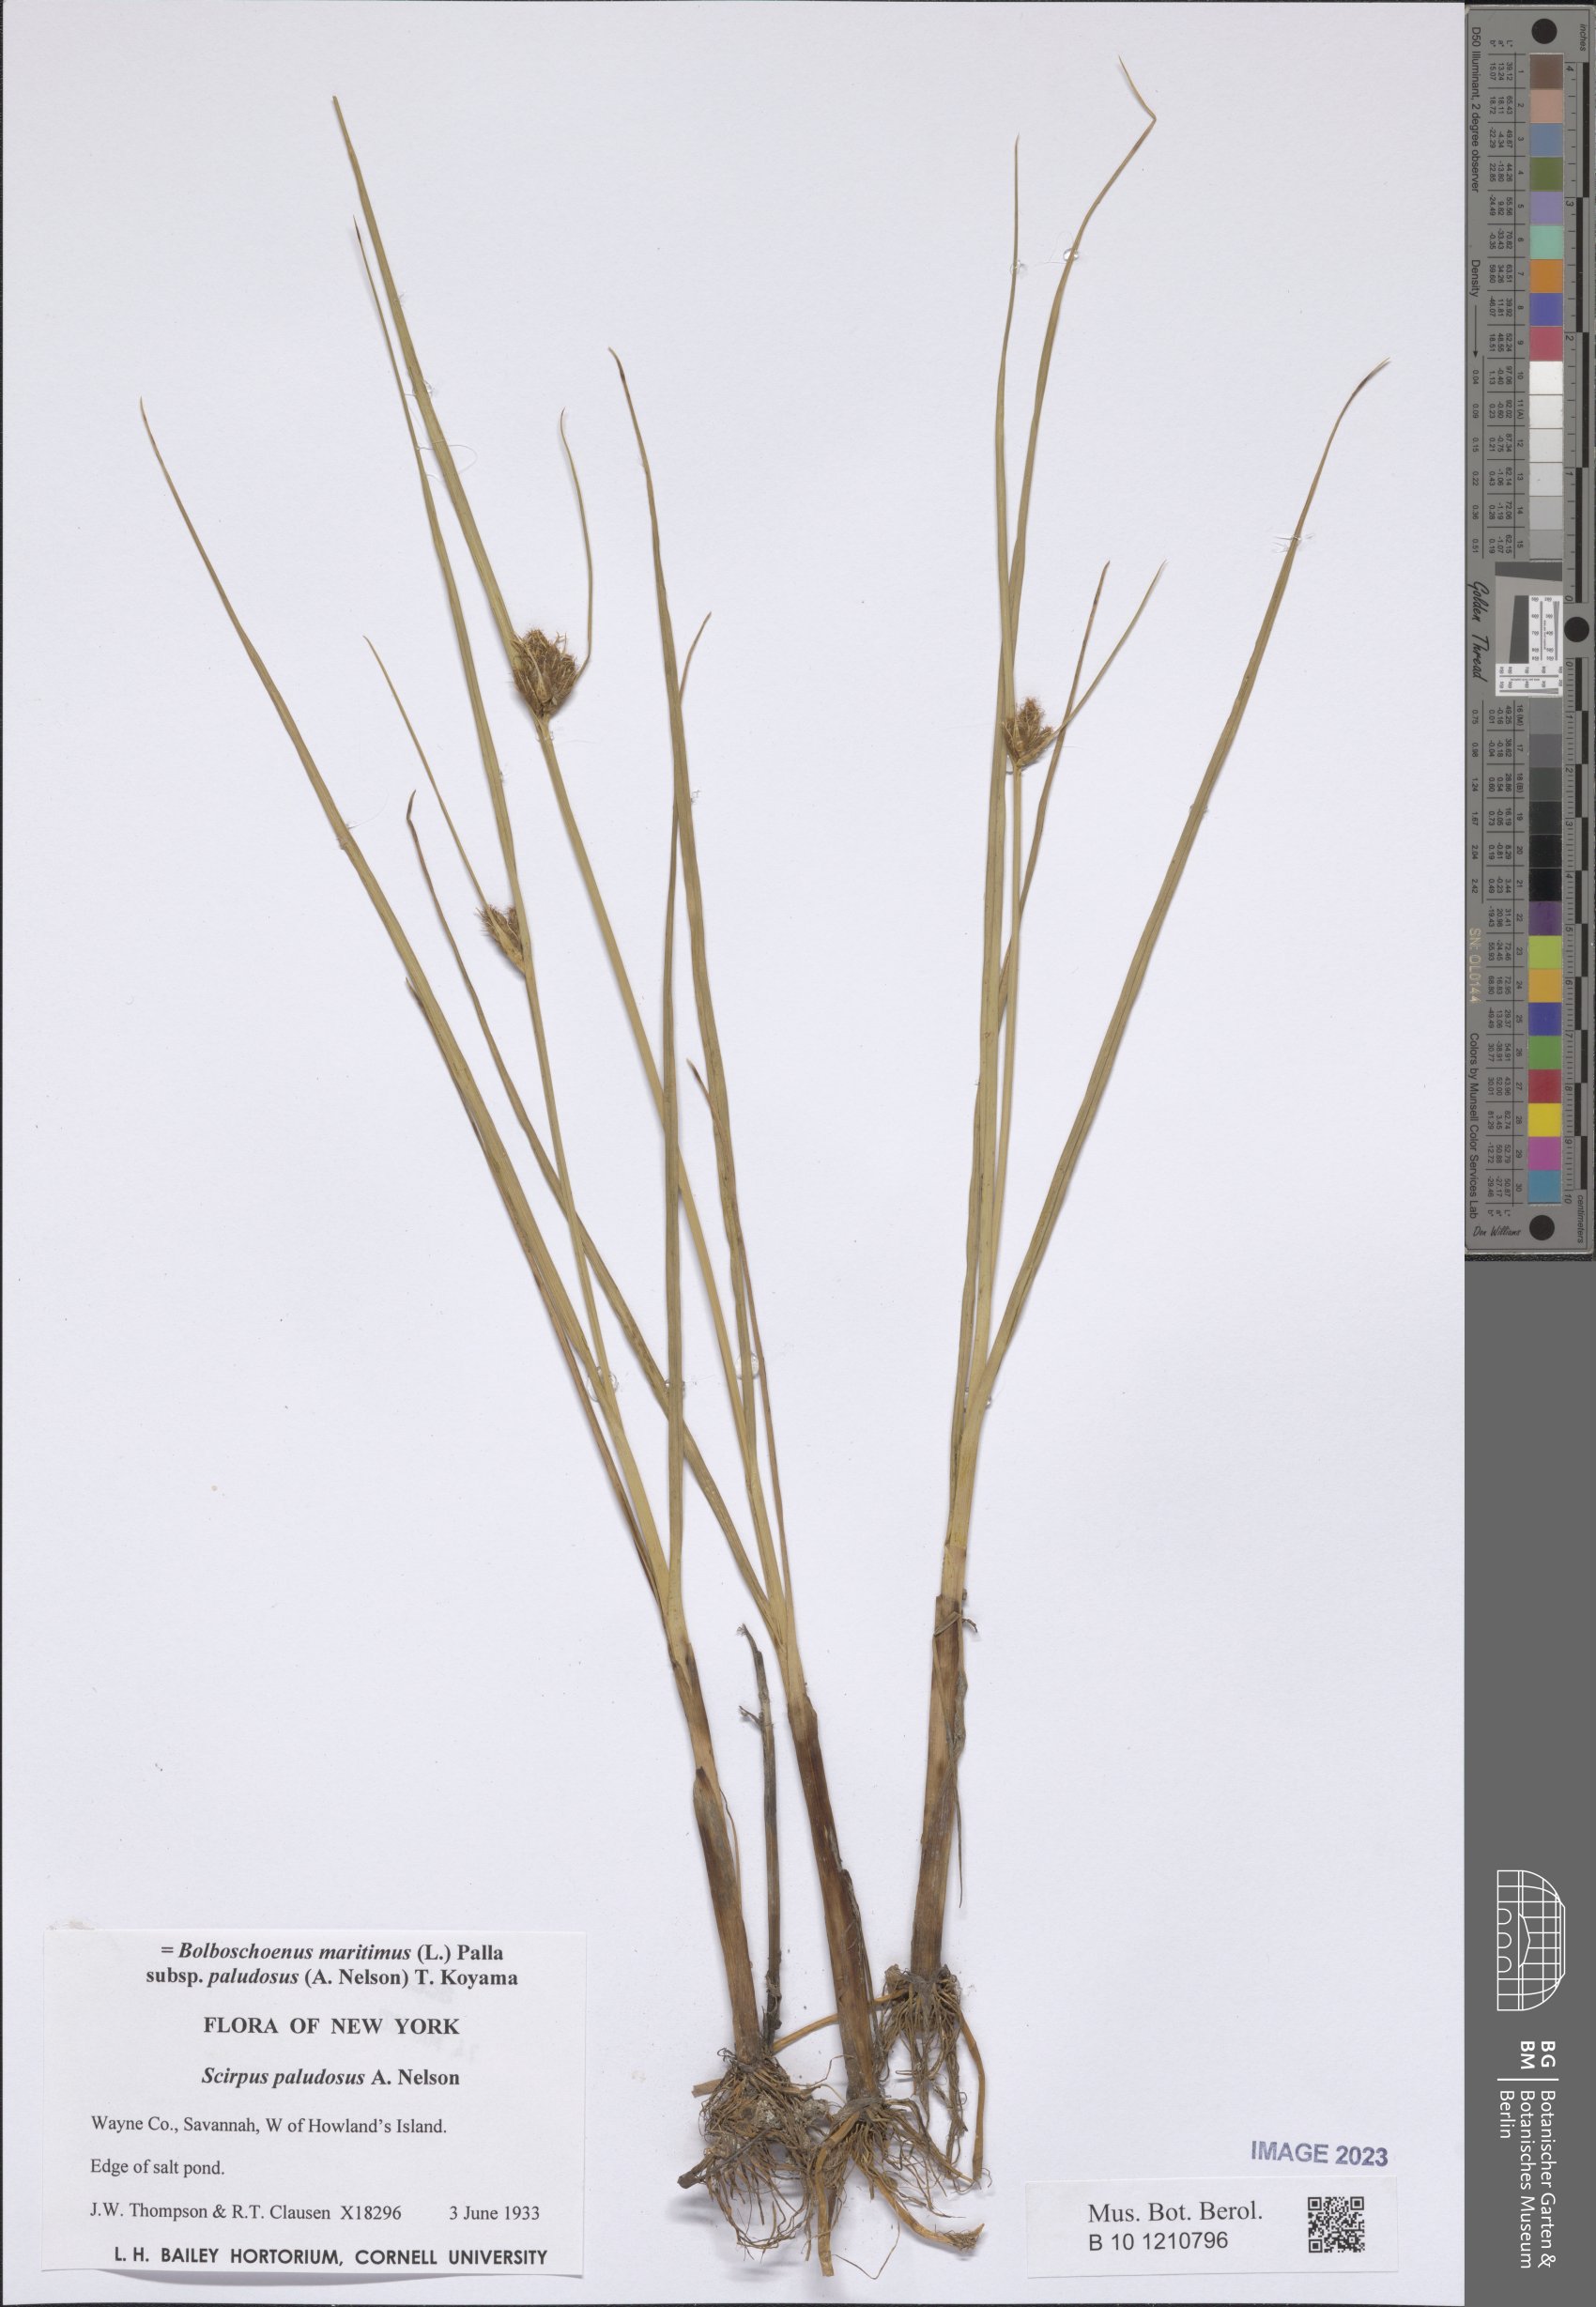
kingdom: Plantae
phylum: Tracheophyta
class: Liliopsida
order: Poales
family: Cyperaceae
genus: Bolboschoenus
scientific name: Bolboschoenus maritimus
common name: Sea club-rush
